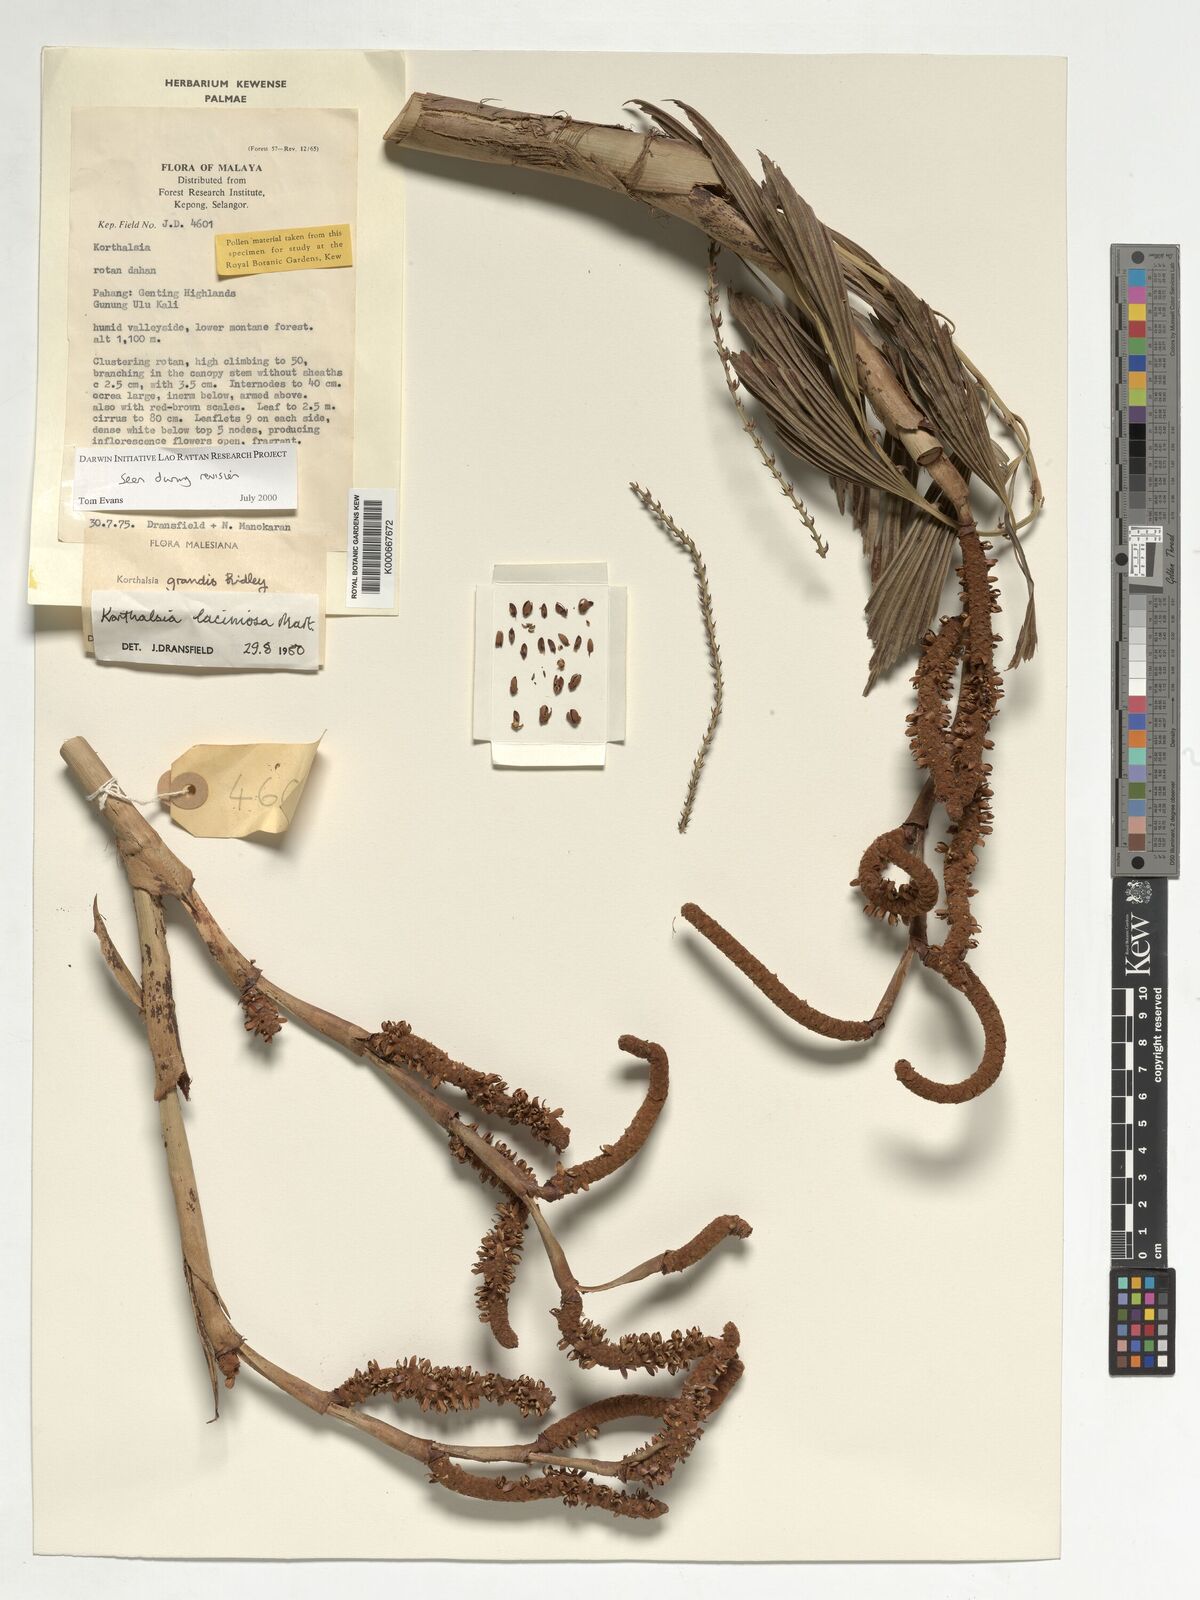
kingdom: Plantae
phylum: Tracheophyta
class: Liliopsida
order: Arecales
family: Arecaceae
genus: Korthalsia
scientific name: Korthalsia laciniosa
